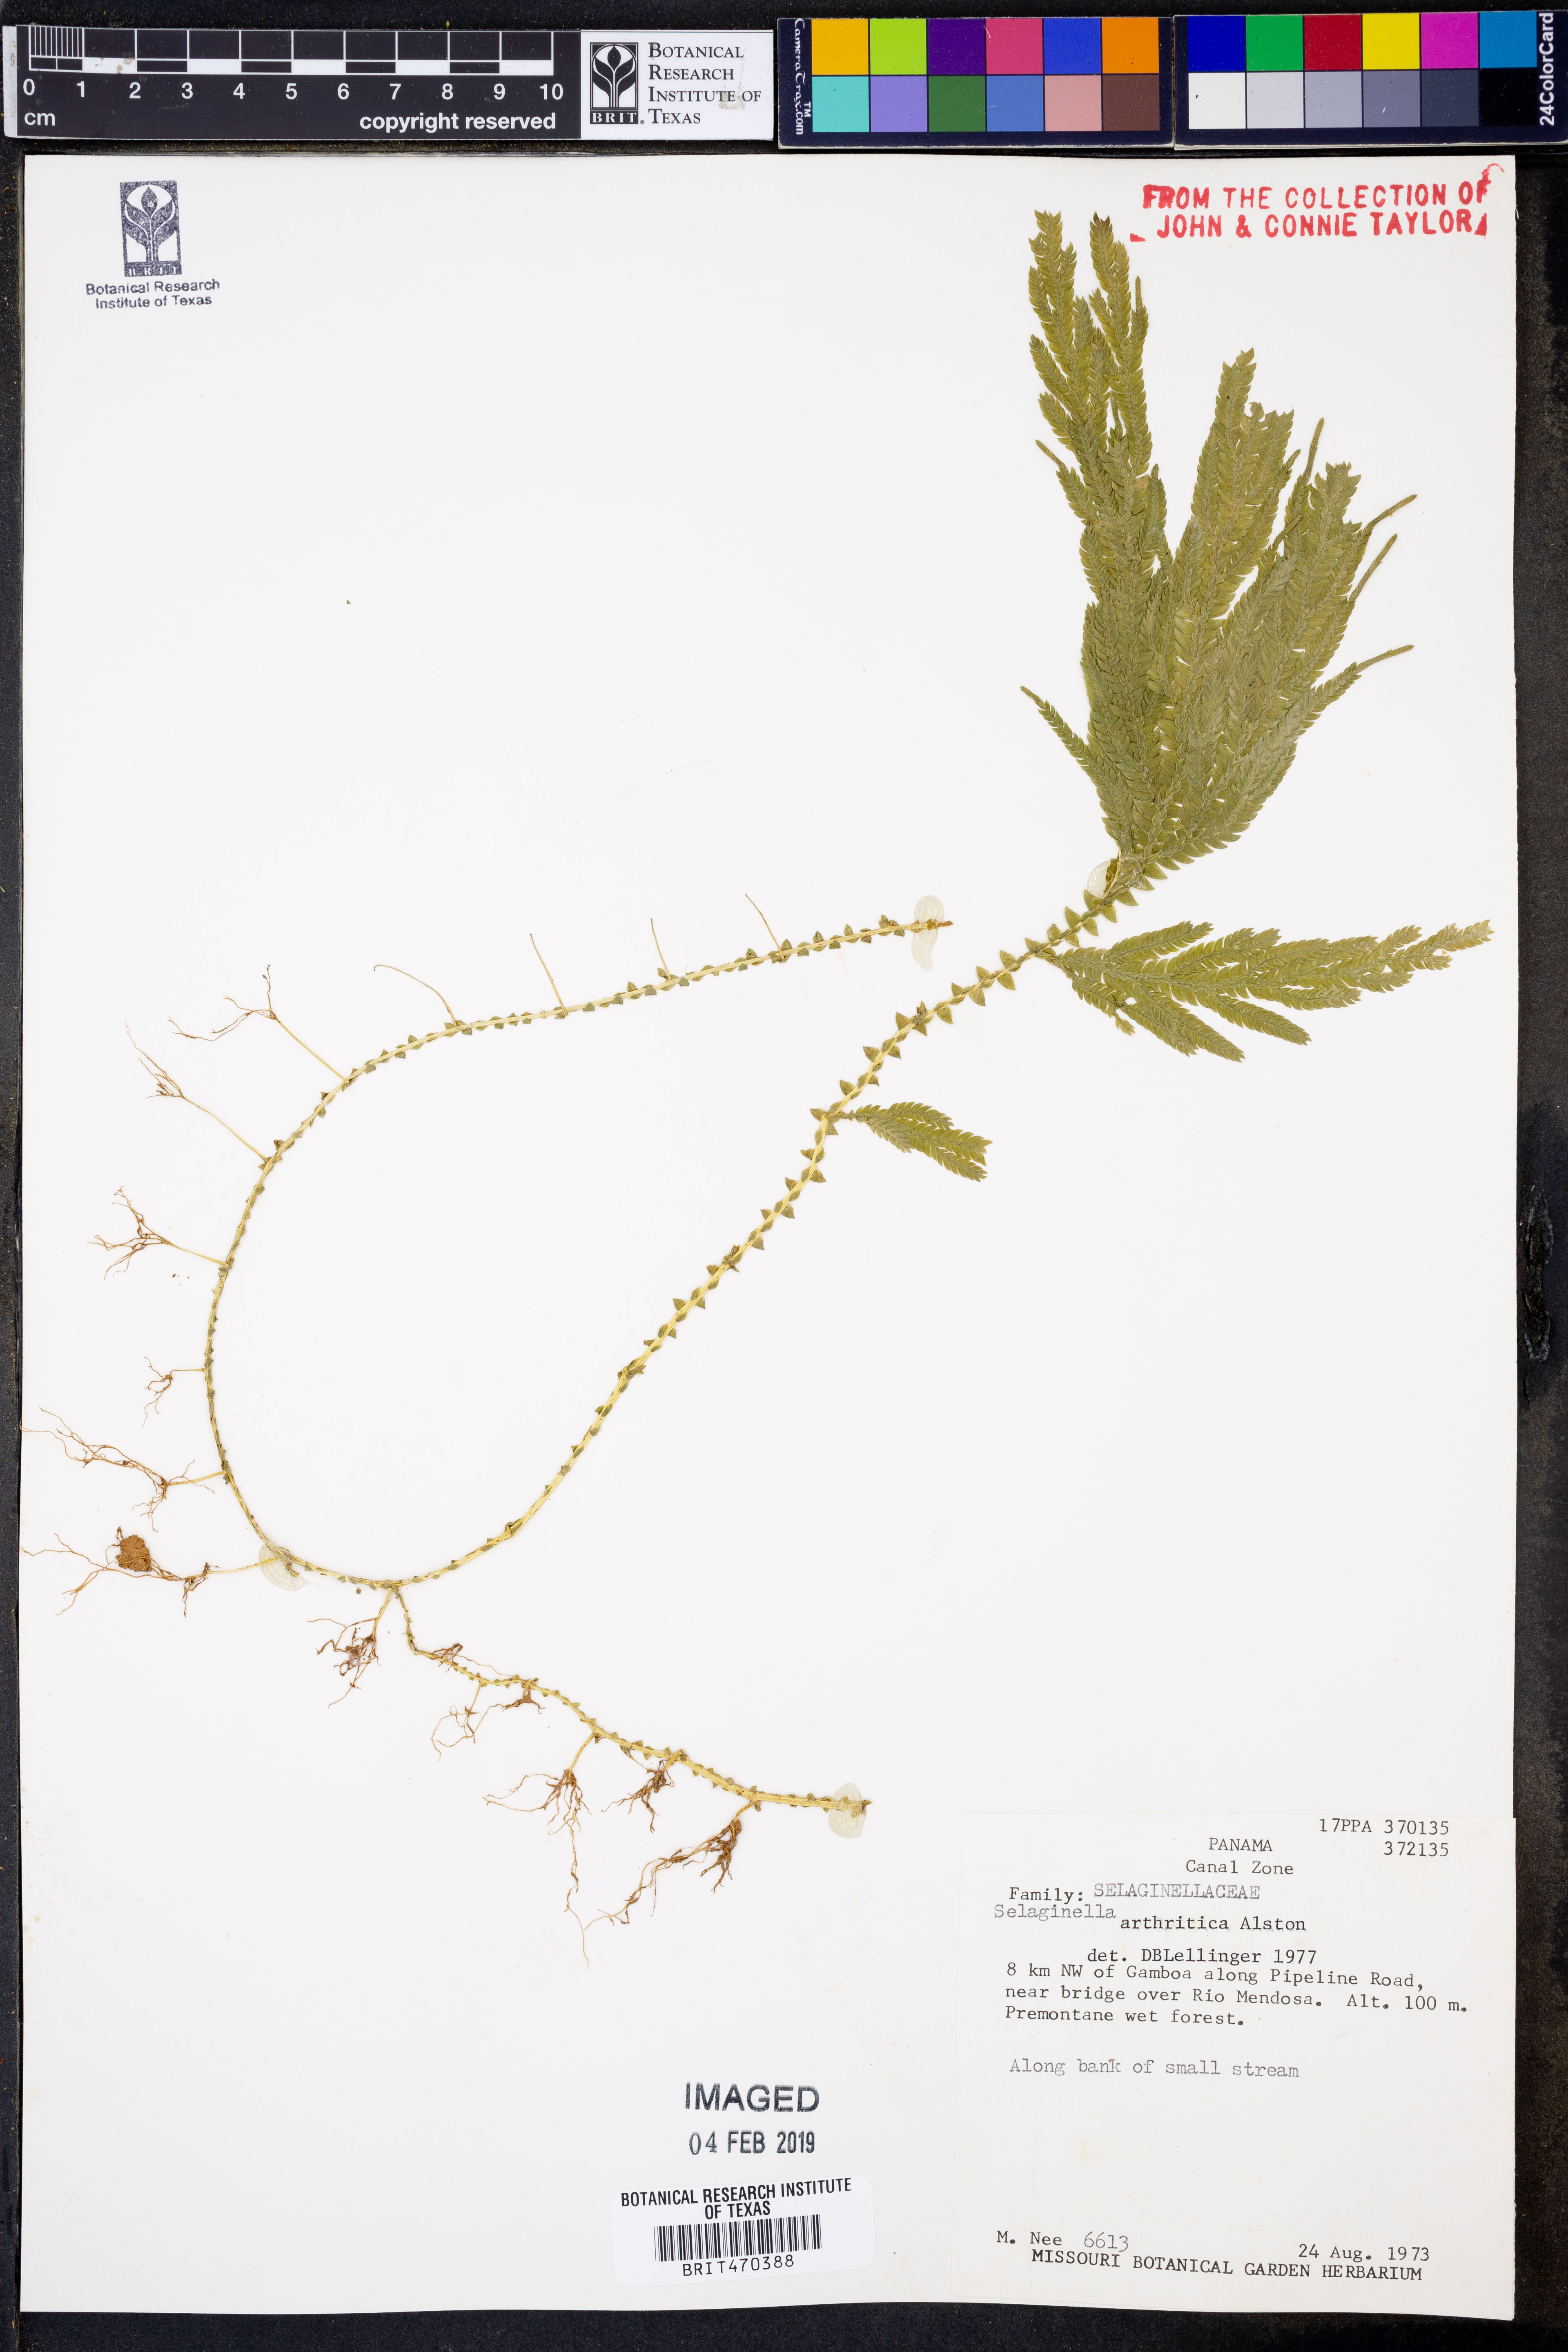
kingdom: Plantae
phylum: Tracheophyta
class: Lycopodiopsida
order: Selaginellales
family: Selaginellaceae
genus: Selaginella
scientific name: Selaginella arthritica
